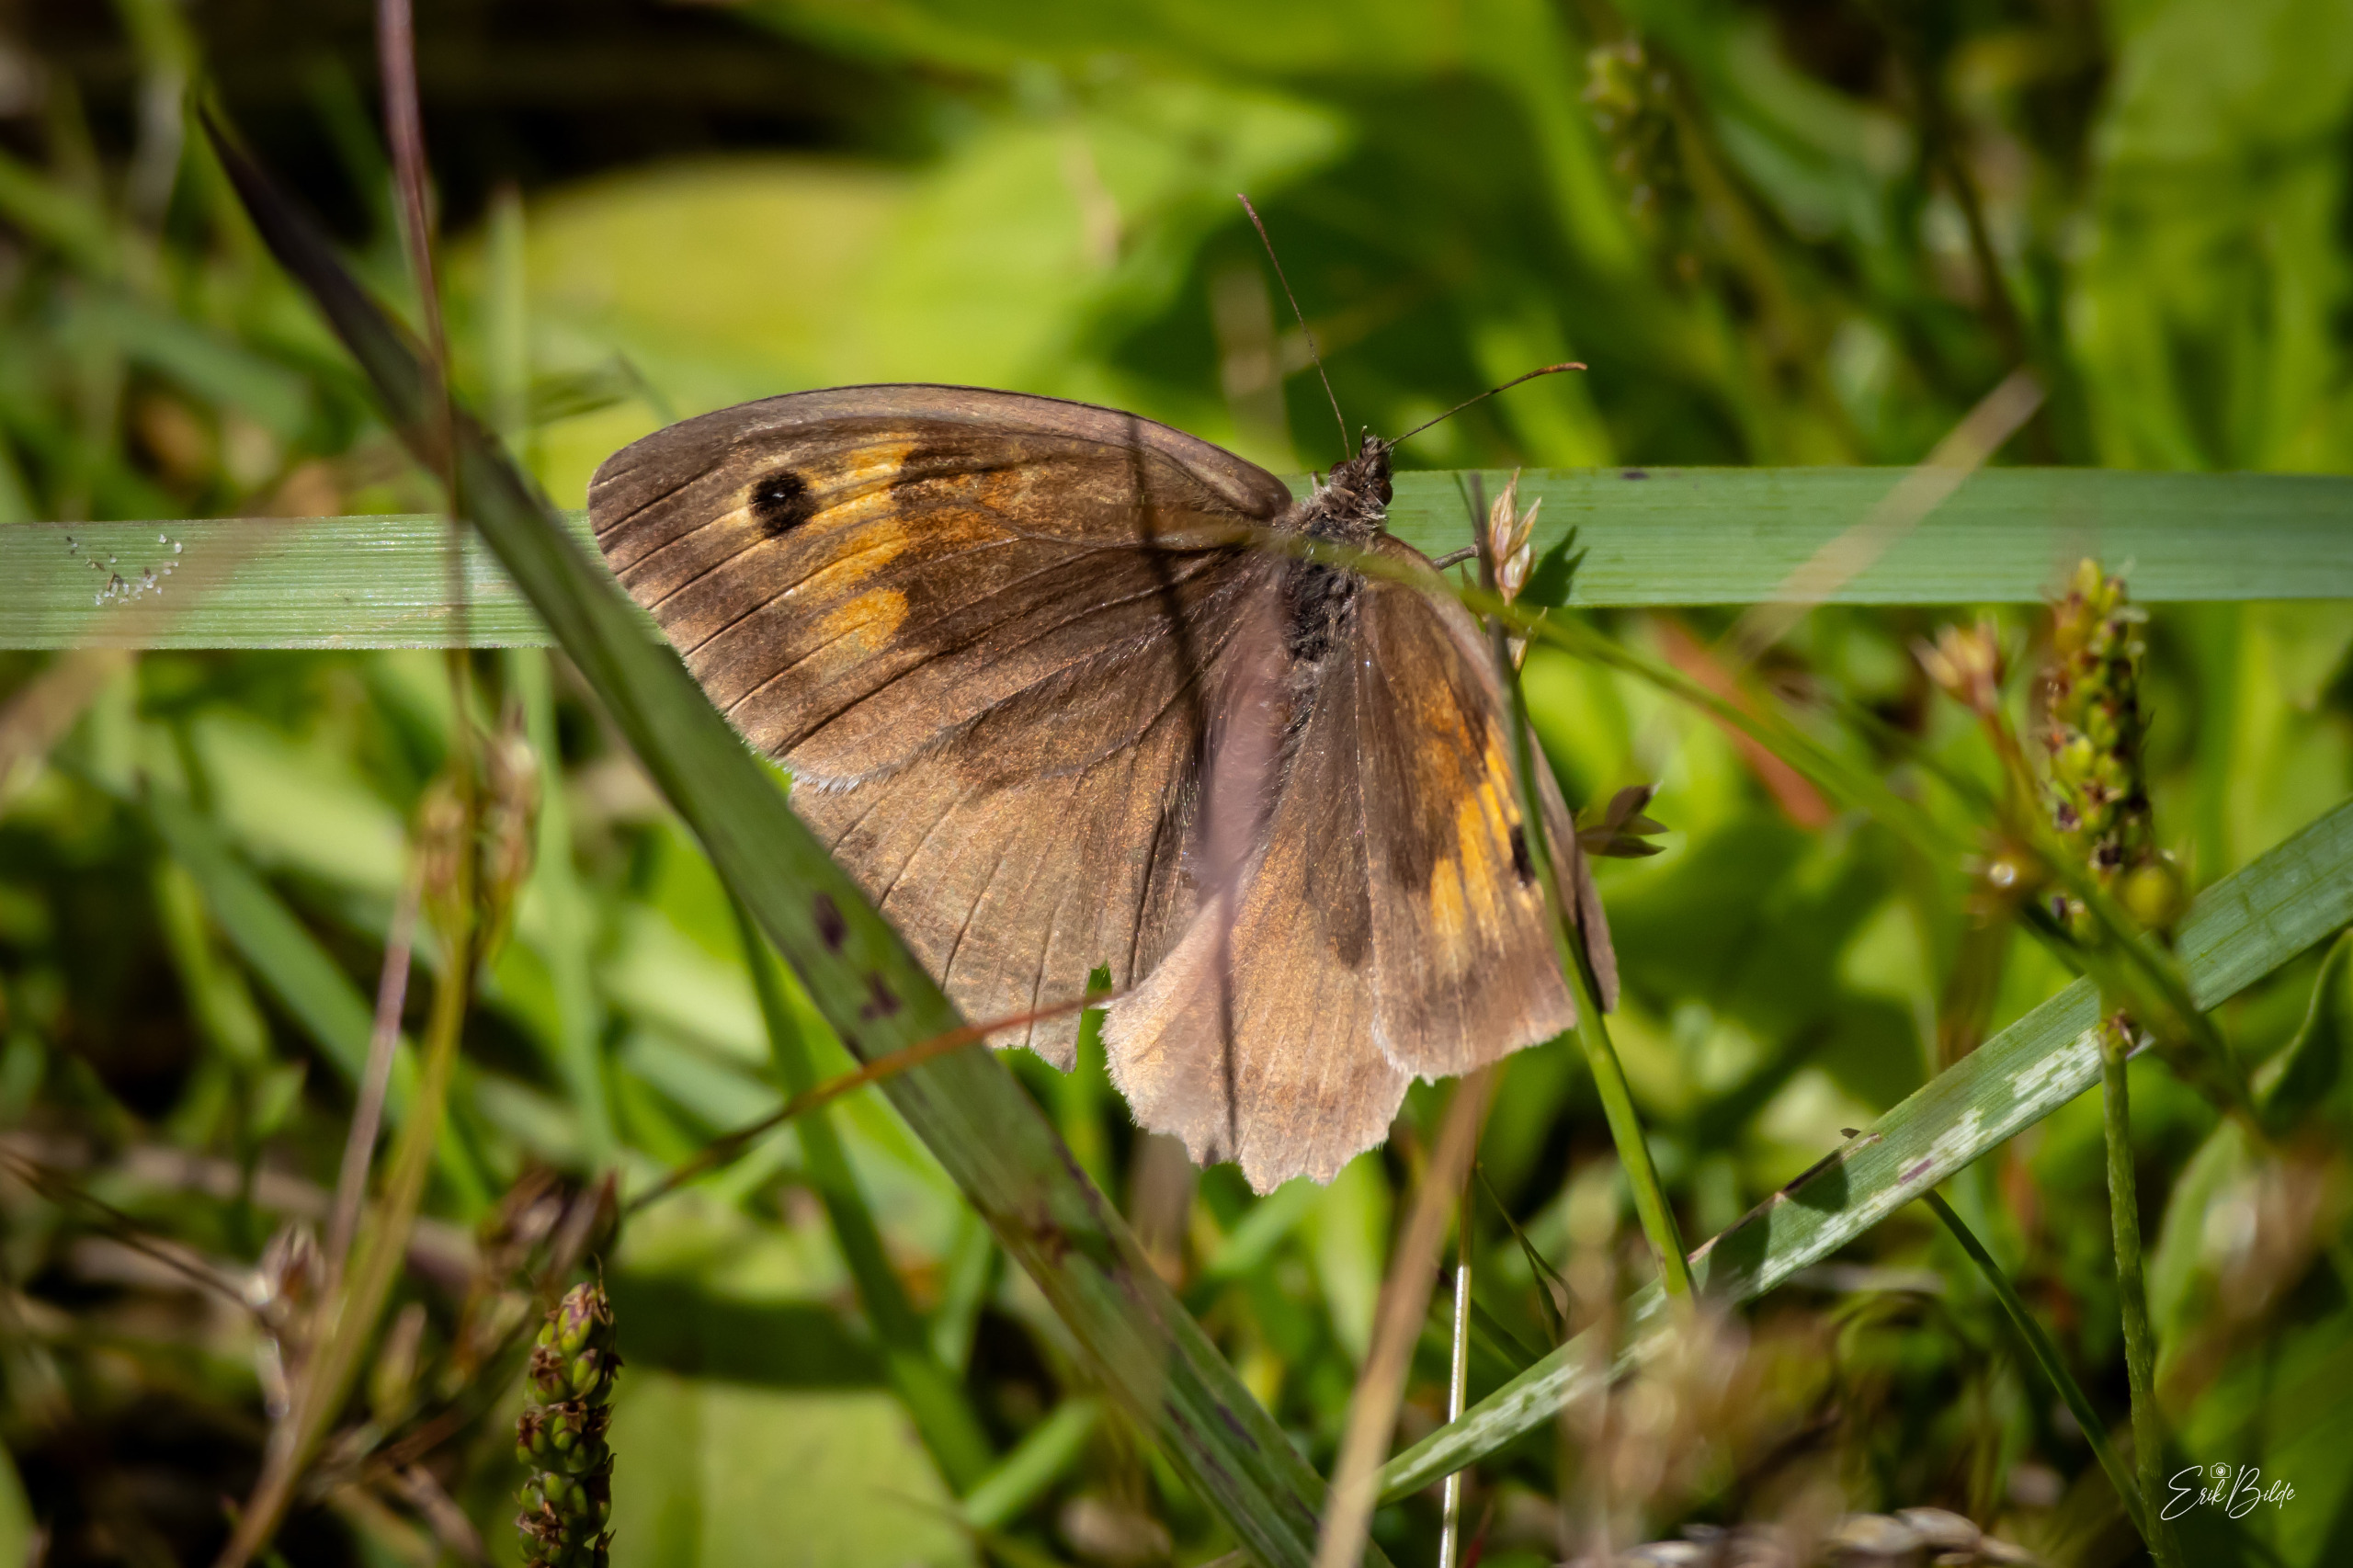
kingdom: Animalia
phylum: Arthropoda
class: Insecta
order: Lepidoptera
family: Nymphalidae
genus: Maniola
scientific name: Maniola jurtina
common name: Græsrandøje
